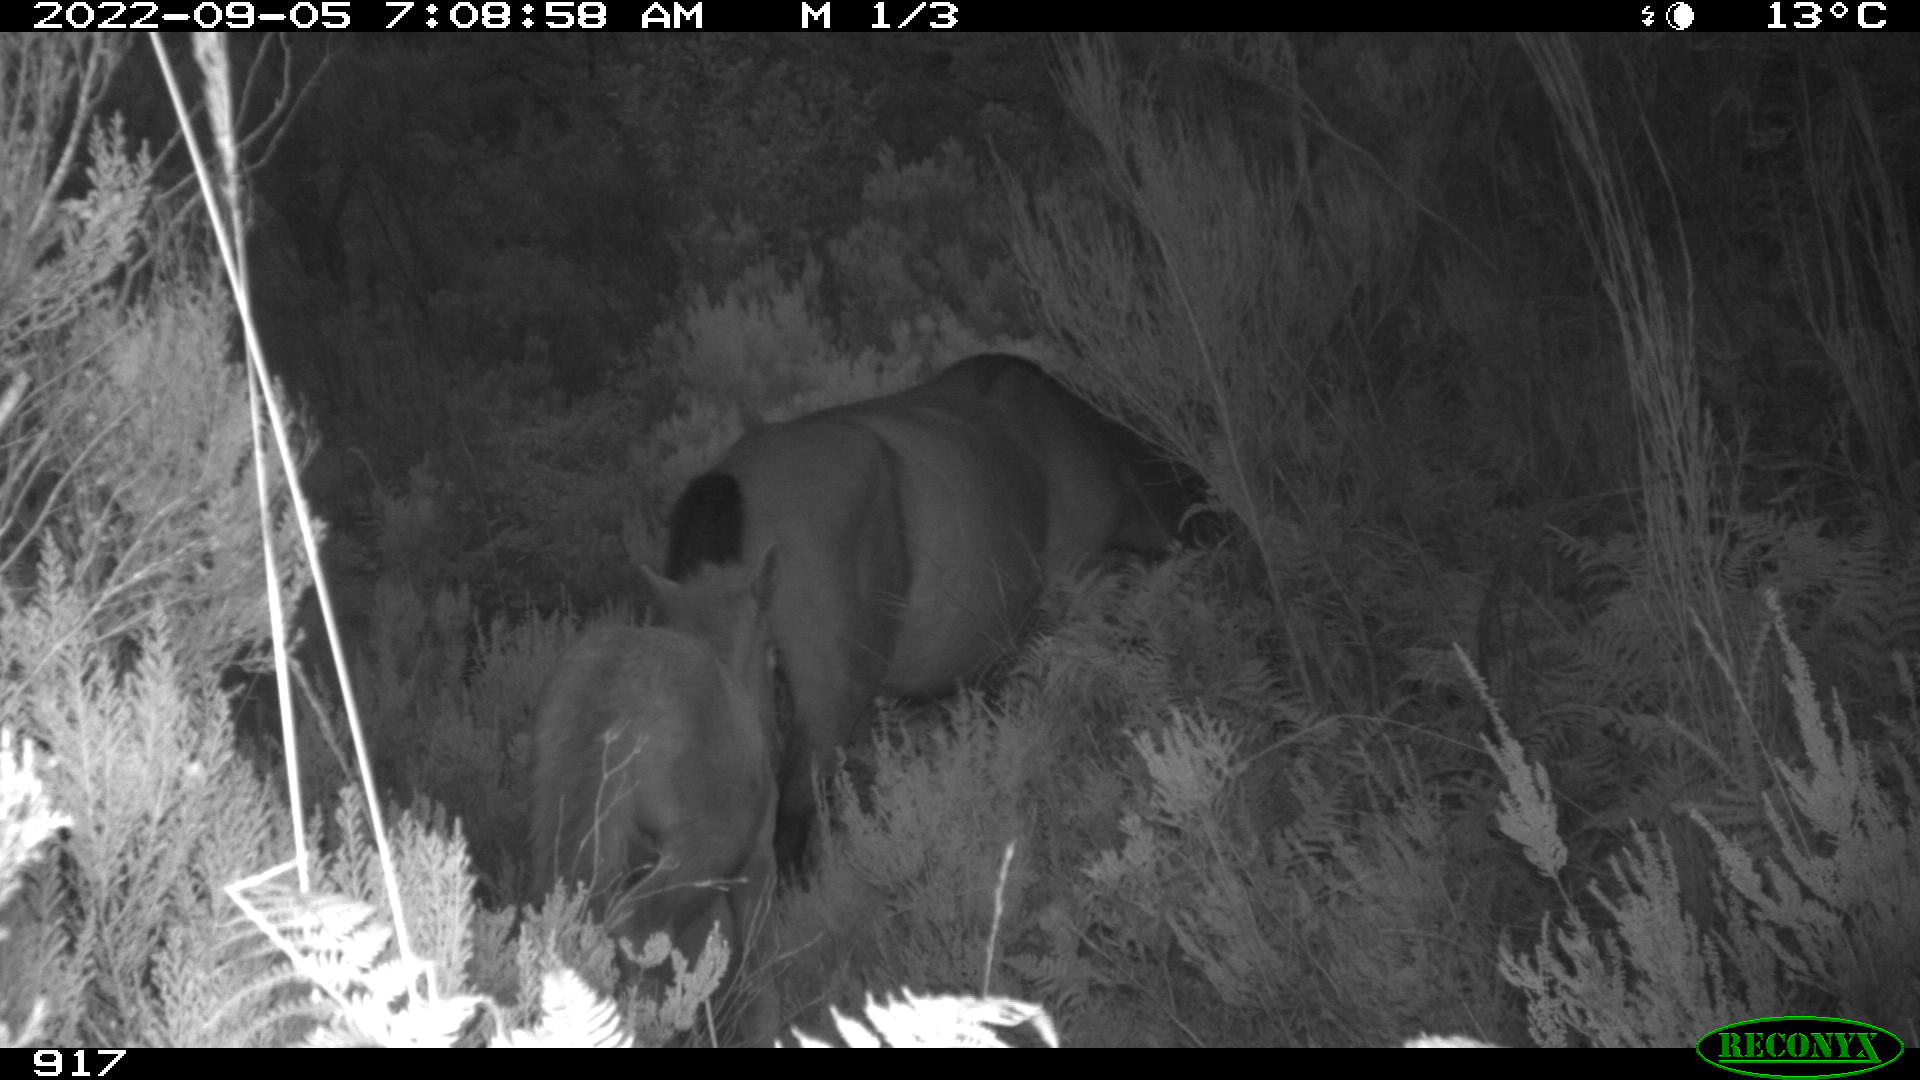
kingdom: Animalia
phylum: Chordata
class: Mammalia
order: Perissodactyla
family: Equidae
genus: Equus
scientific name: Equus caballus
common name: Horse
